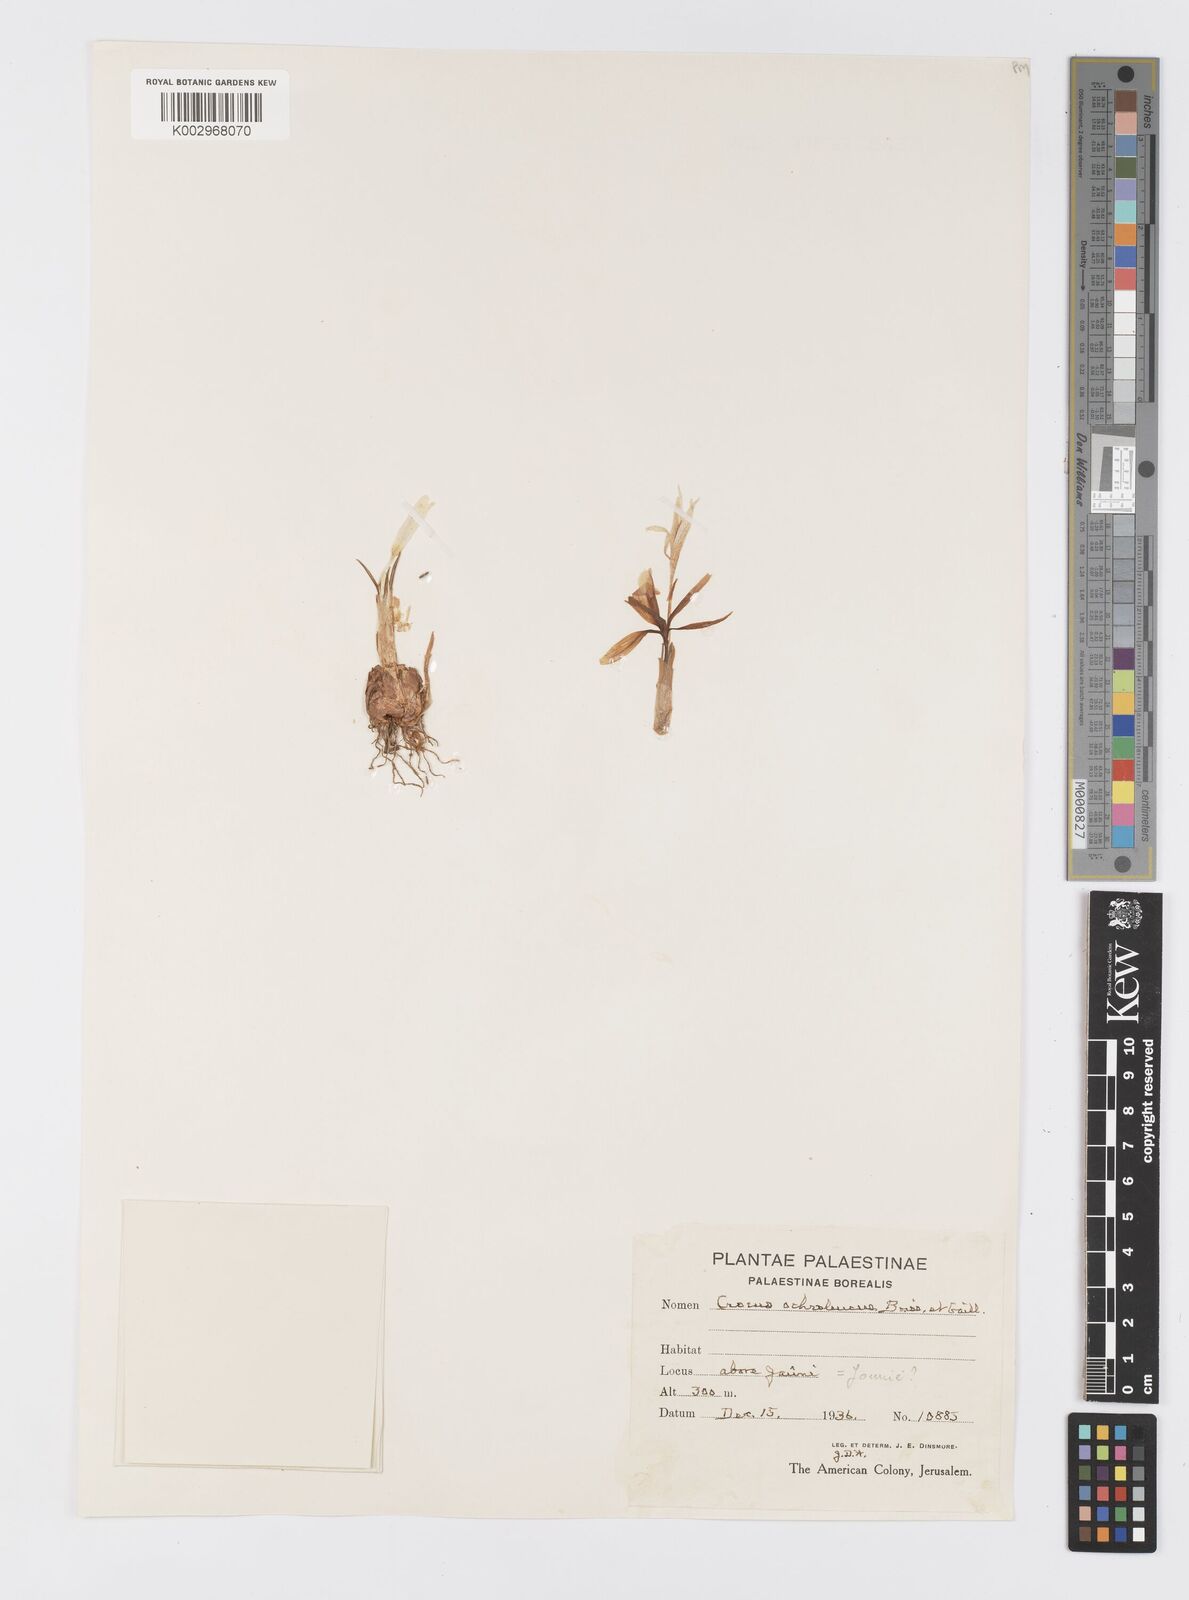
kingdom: Plantae
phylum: Tracheophyta
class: Liliopsida
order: Asparagales
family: Iridaceae
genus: Crocus
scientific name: Crocus ochroleucus
